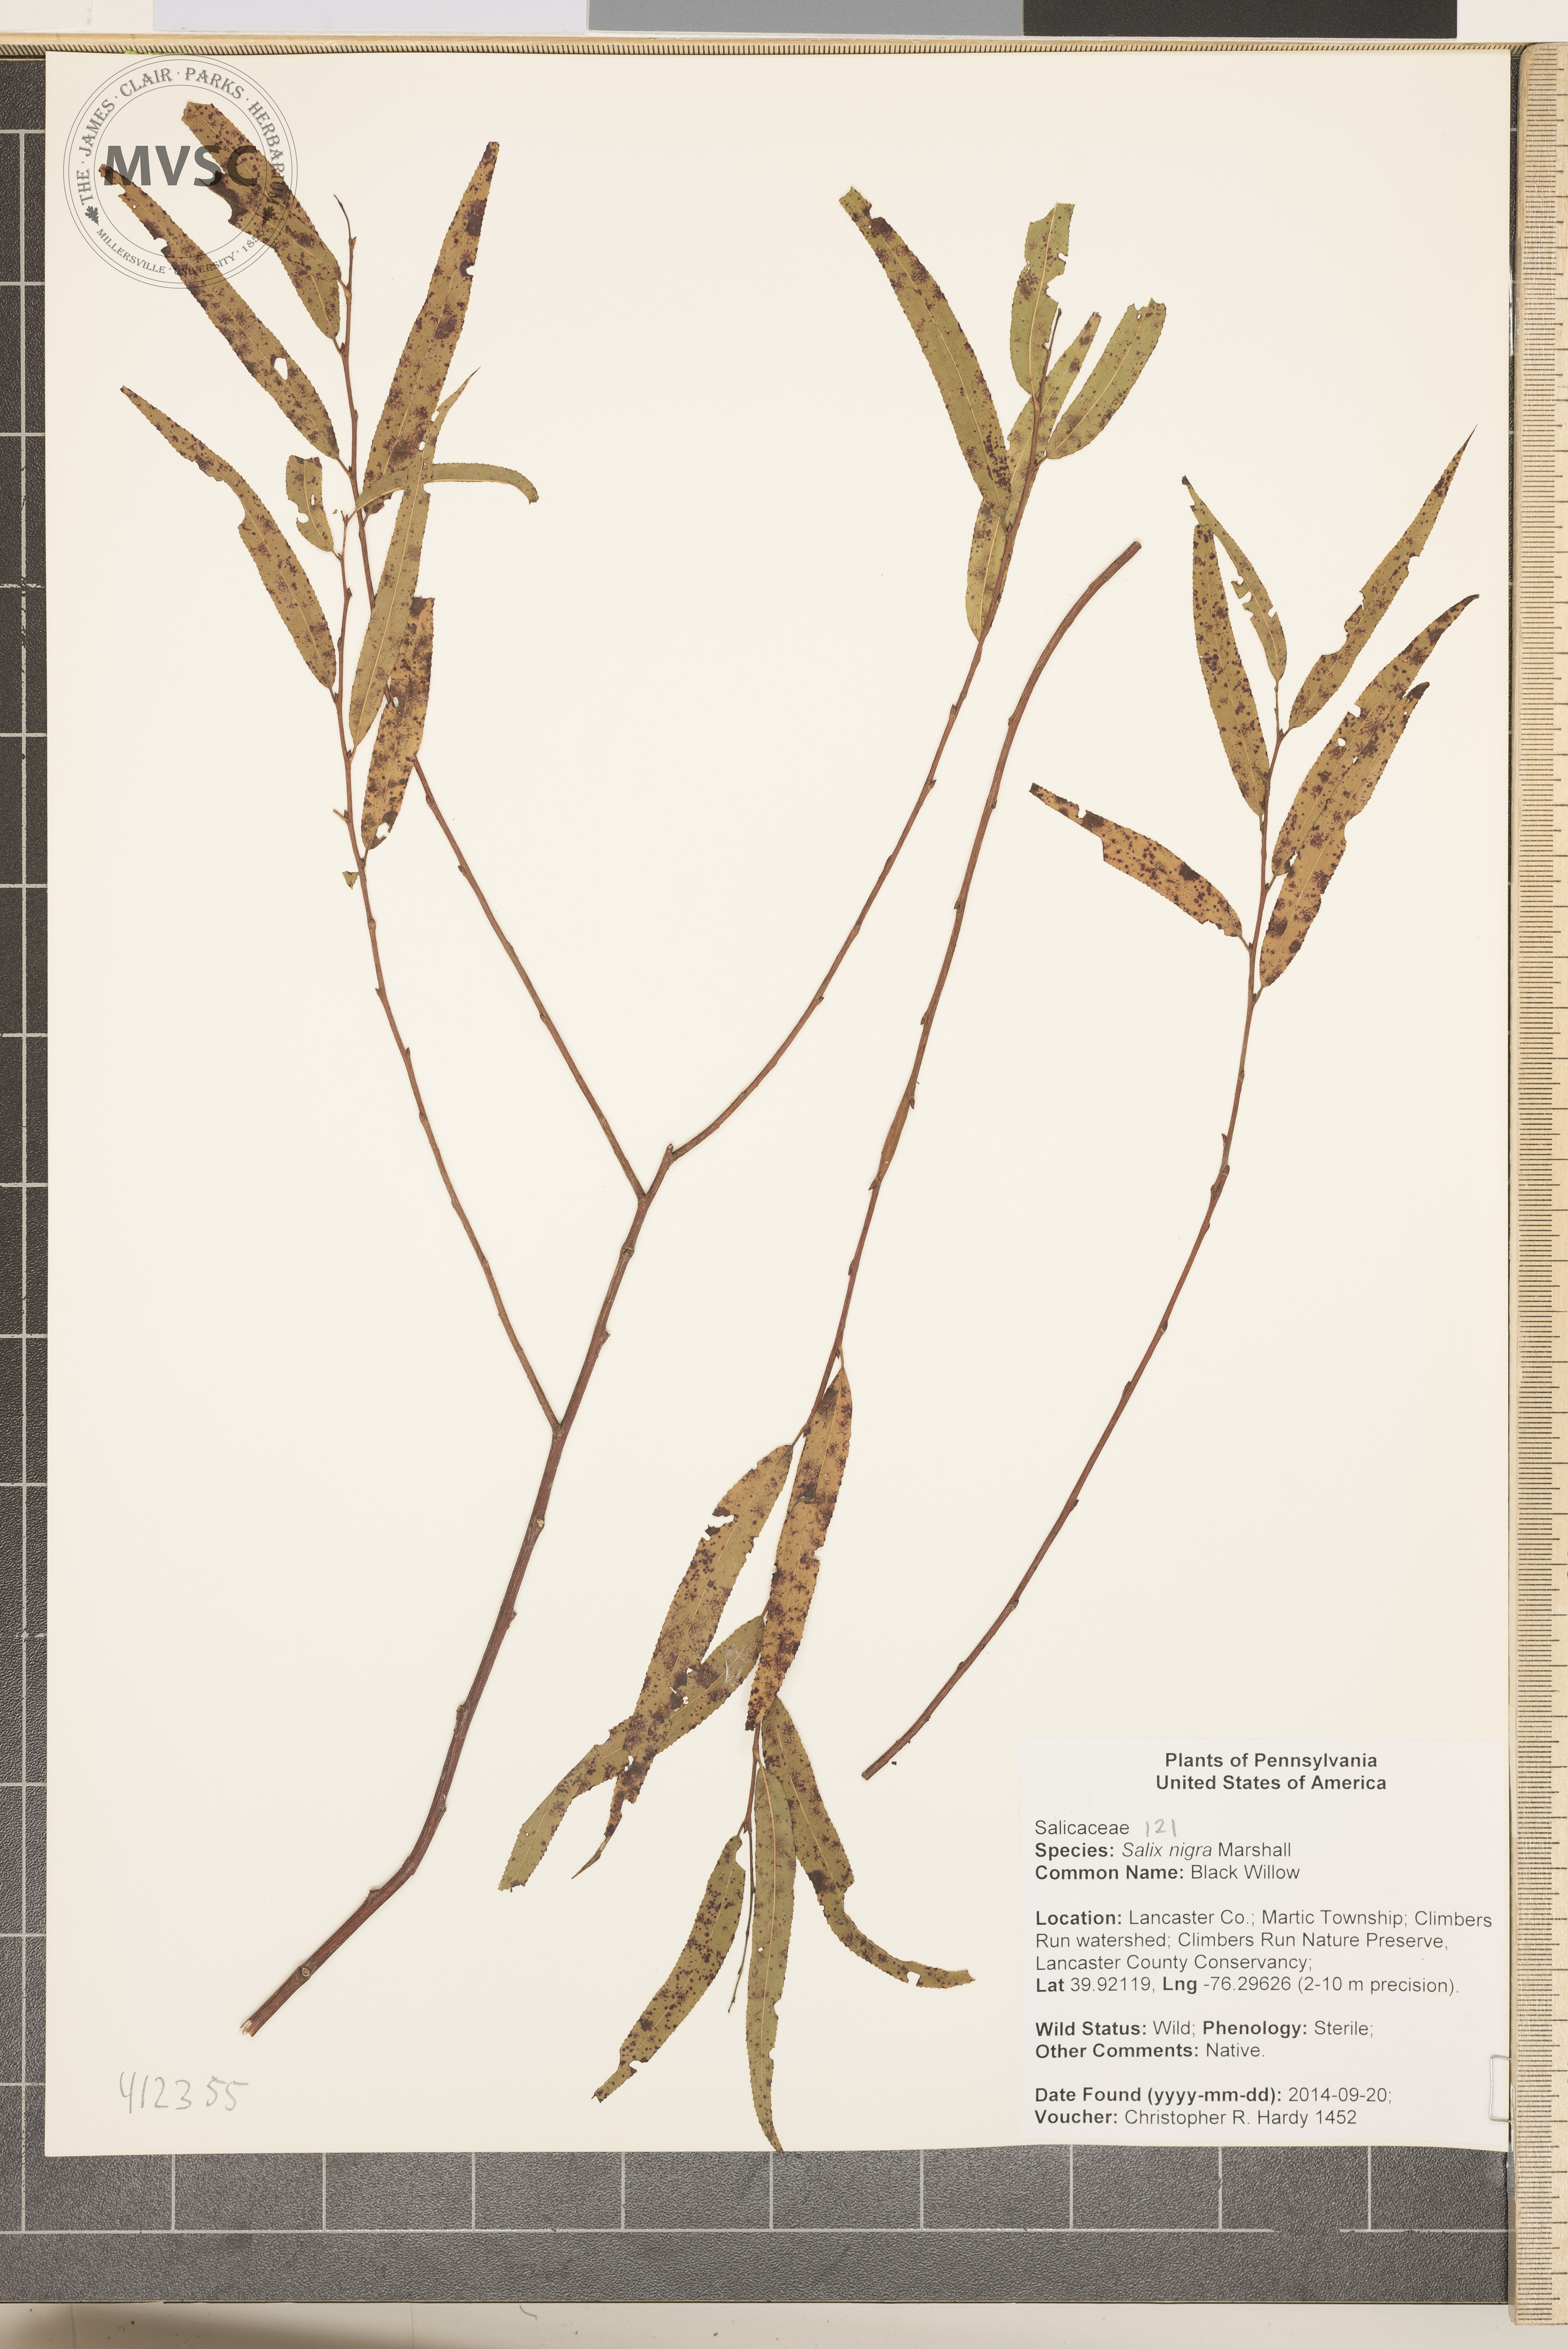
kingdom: Plantae
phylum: Tracheophyta
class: Magnoliopsida
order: Malpighiales
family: Salicaceae
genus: Salix
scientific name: Salix nigra
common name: black willow
